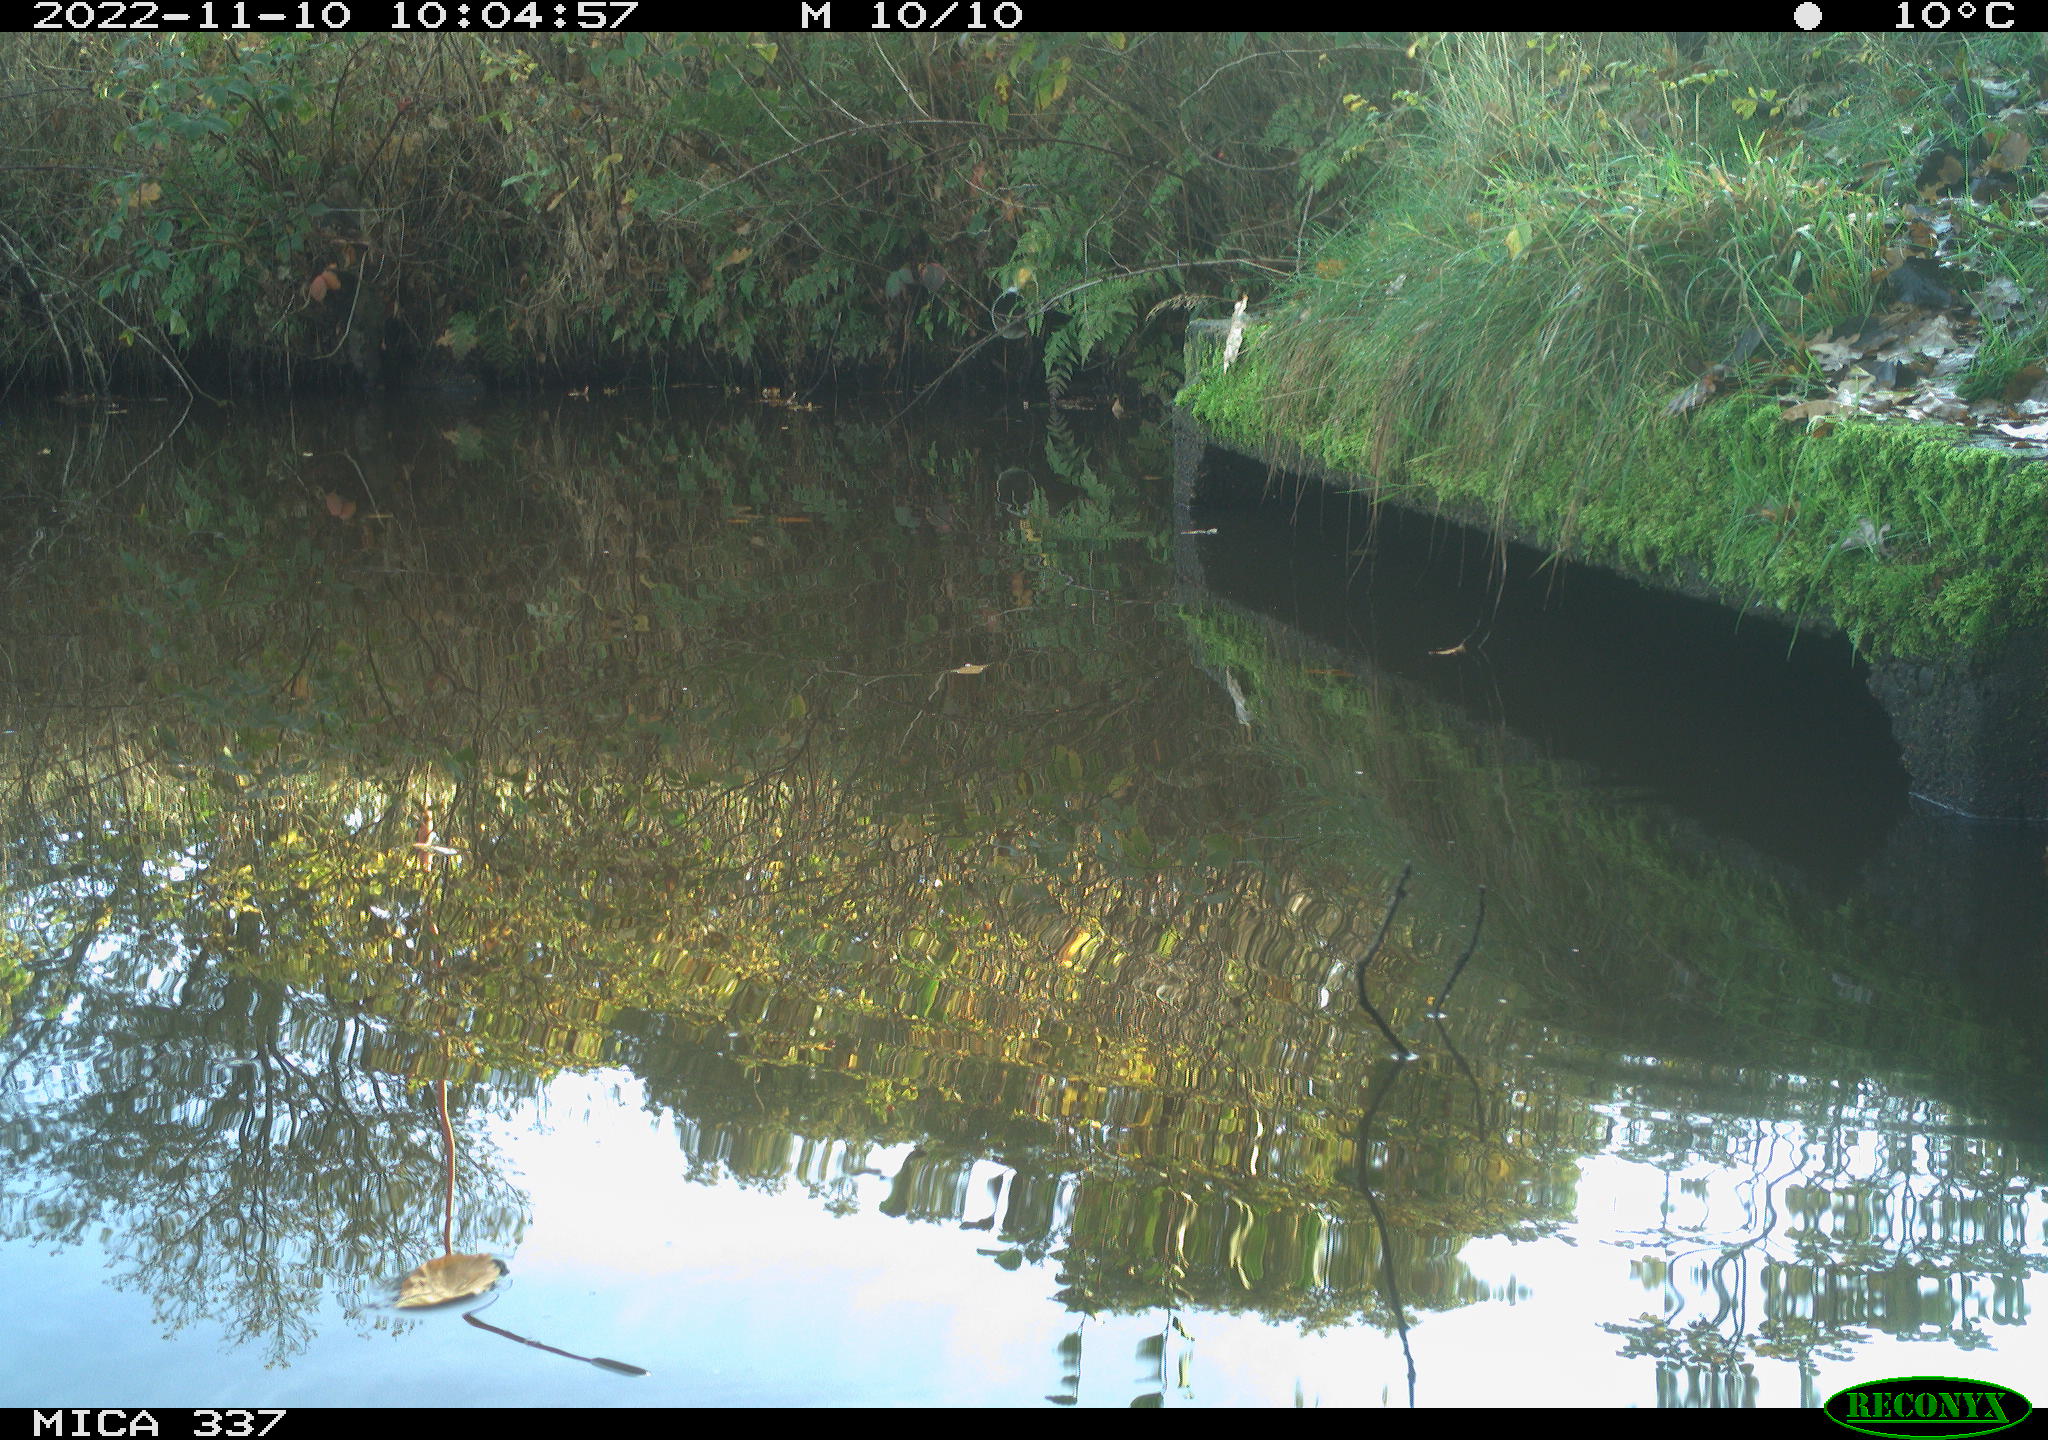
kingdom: Animalia
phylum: Chordata
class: Aves
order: Gruiformes
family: Rallidae
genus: Gallinula
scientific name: Gallinula chloropus
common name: Common moorhen
